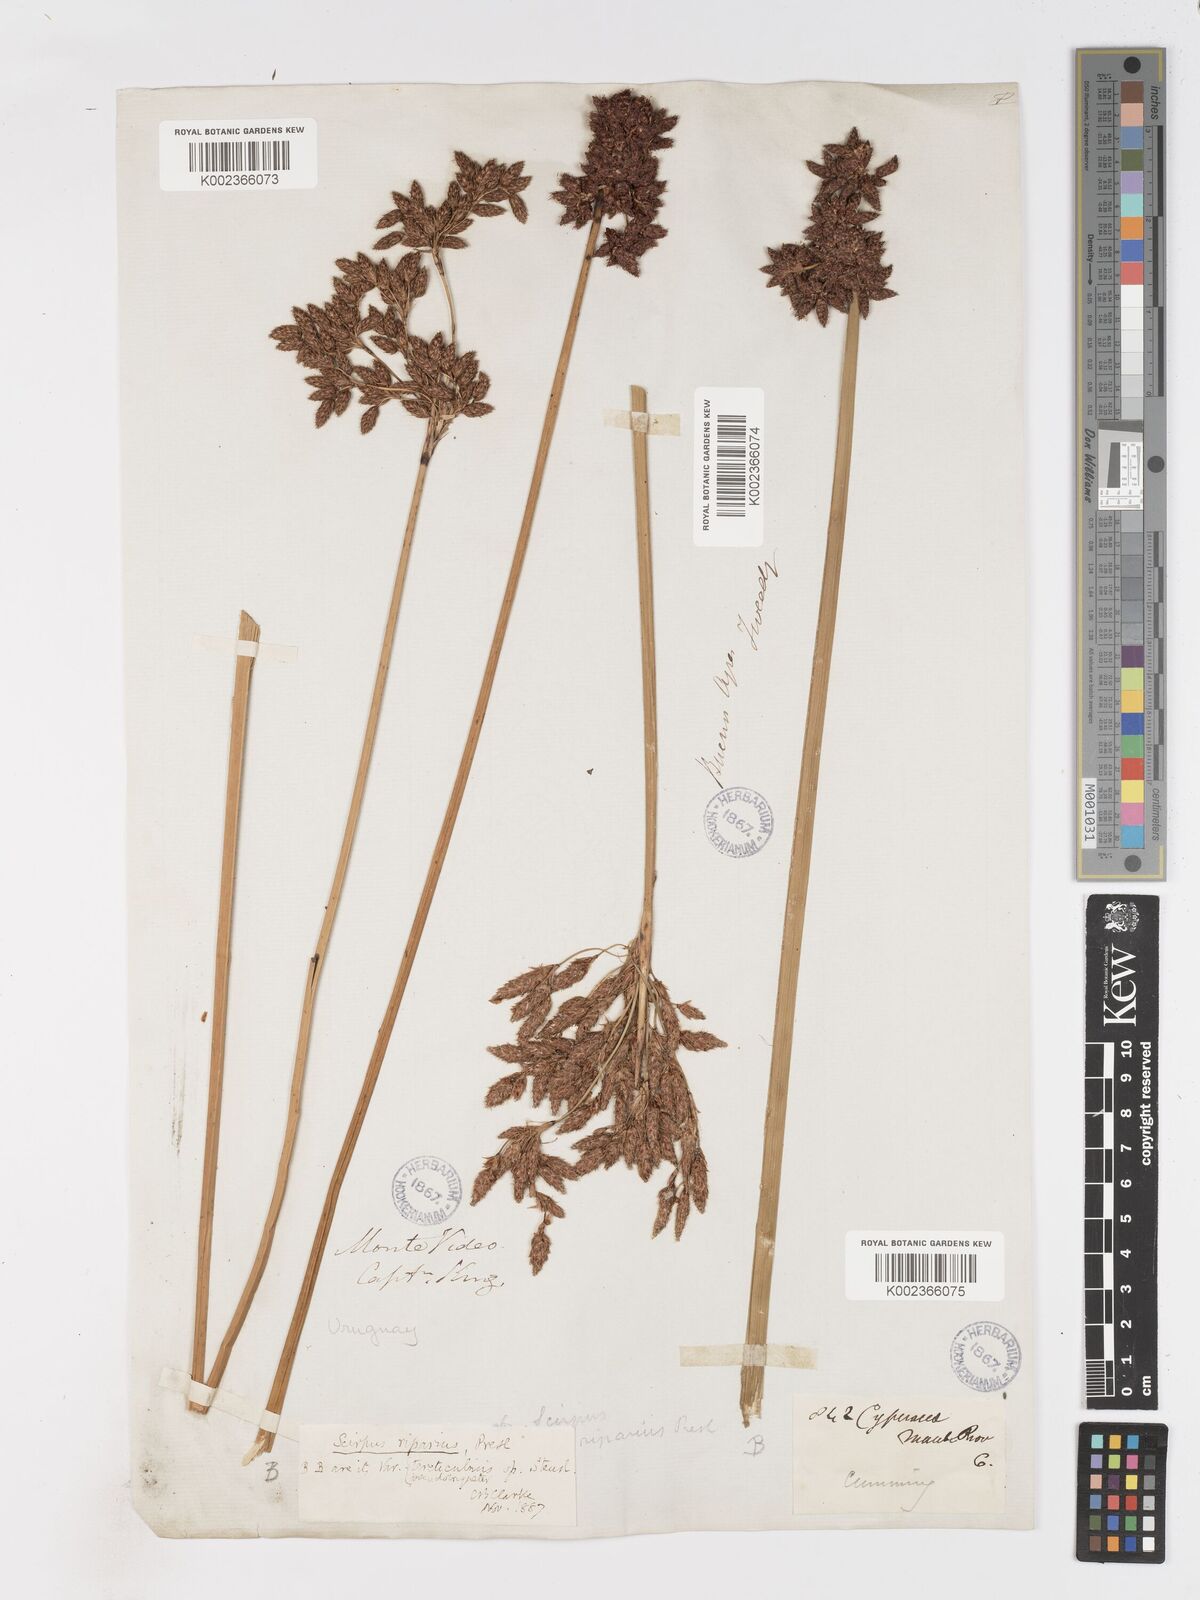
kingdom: Plantae
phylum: Tracheophyta
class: Liliopsida
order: Poales
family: Cyperaceae
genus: Schoenoplectus
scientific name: Schoenoplectus californicus
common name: California bulrush
